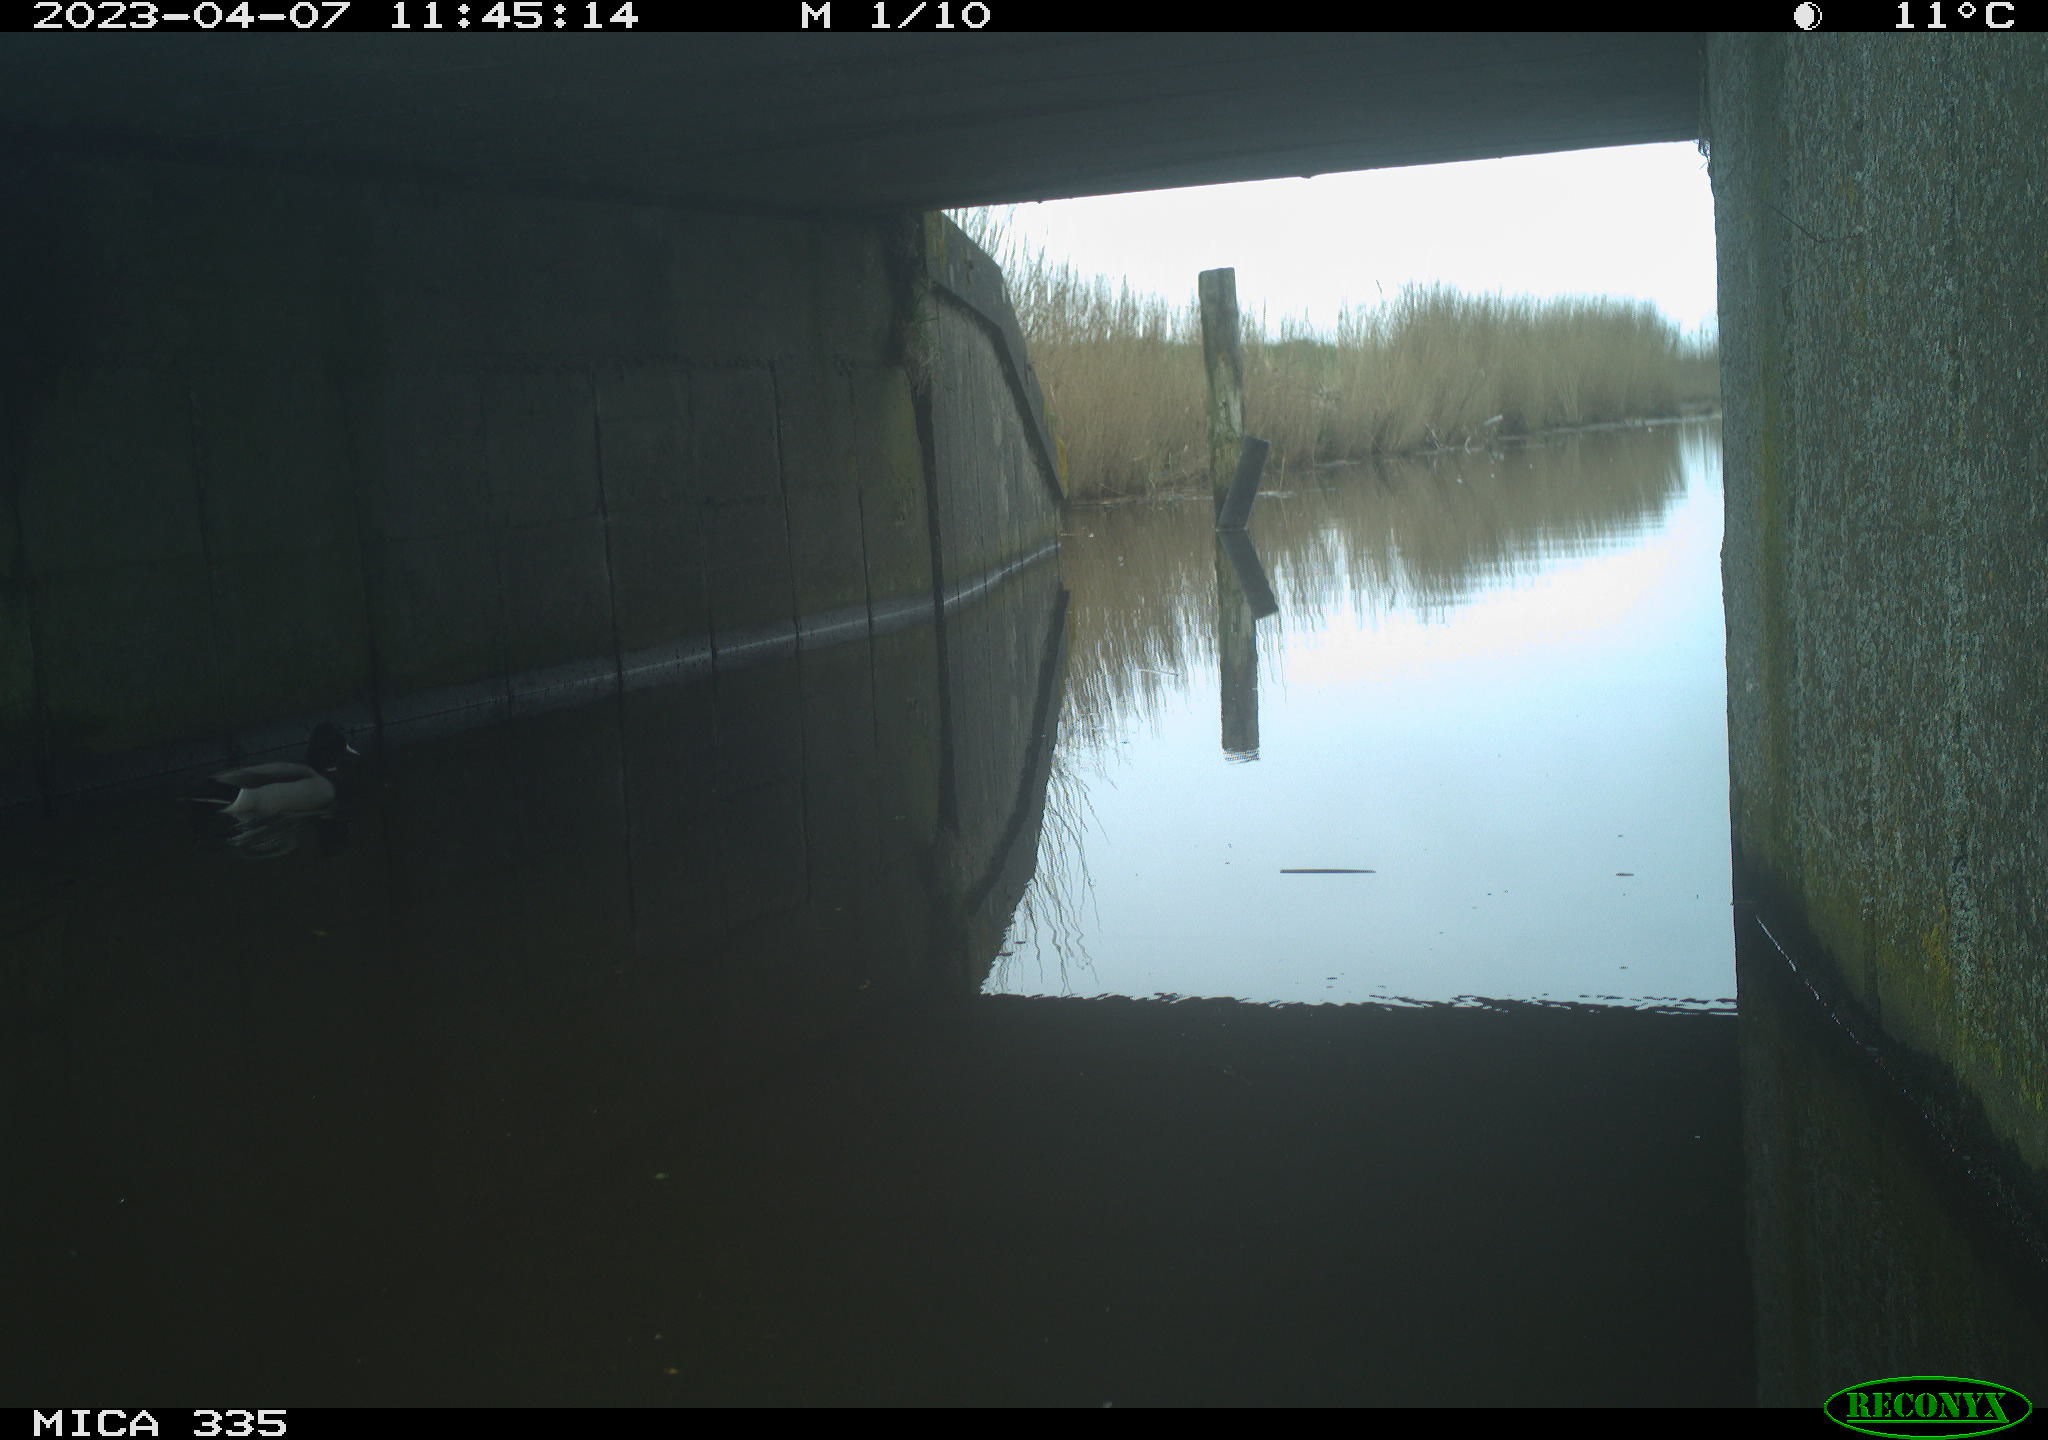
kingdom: Animalia
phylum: Chordata
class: Aves
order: Anseriformes
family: Anatidae
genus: Anas
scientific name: Anas
